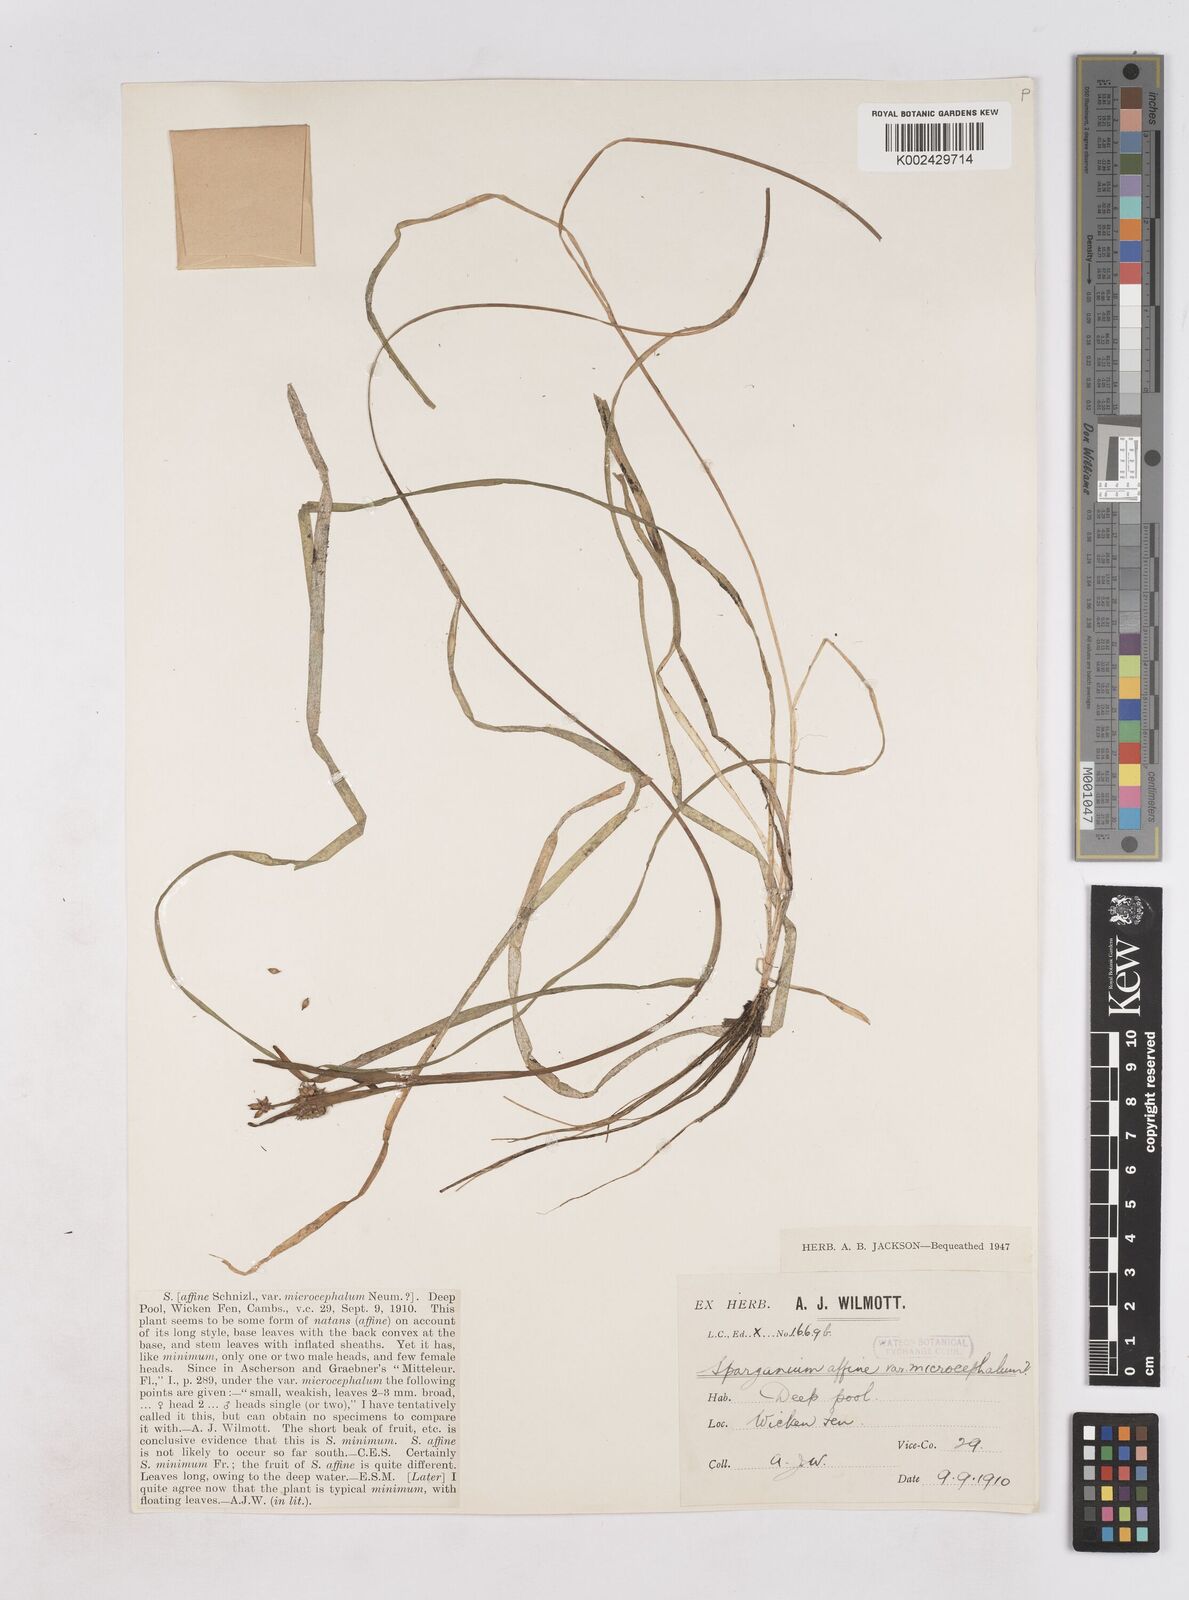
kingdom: Plantae
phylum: Tracheophyta
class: Liliopsida
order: Poales
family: Typhaceae
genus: Sparganium
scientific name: Sparganium angustifolium
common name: Floating bur-reed
